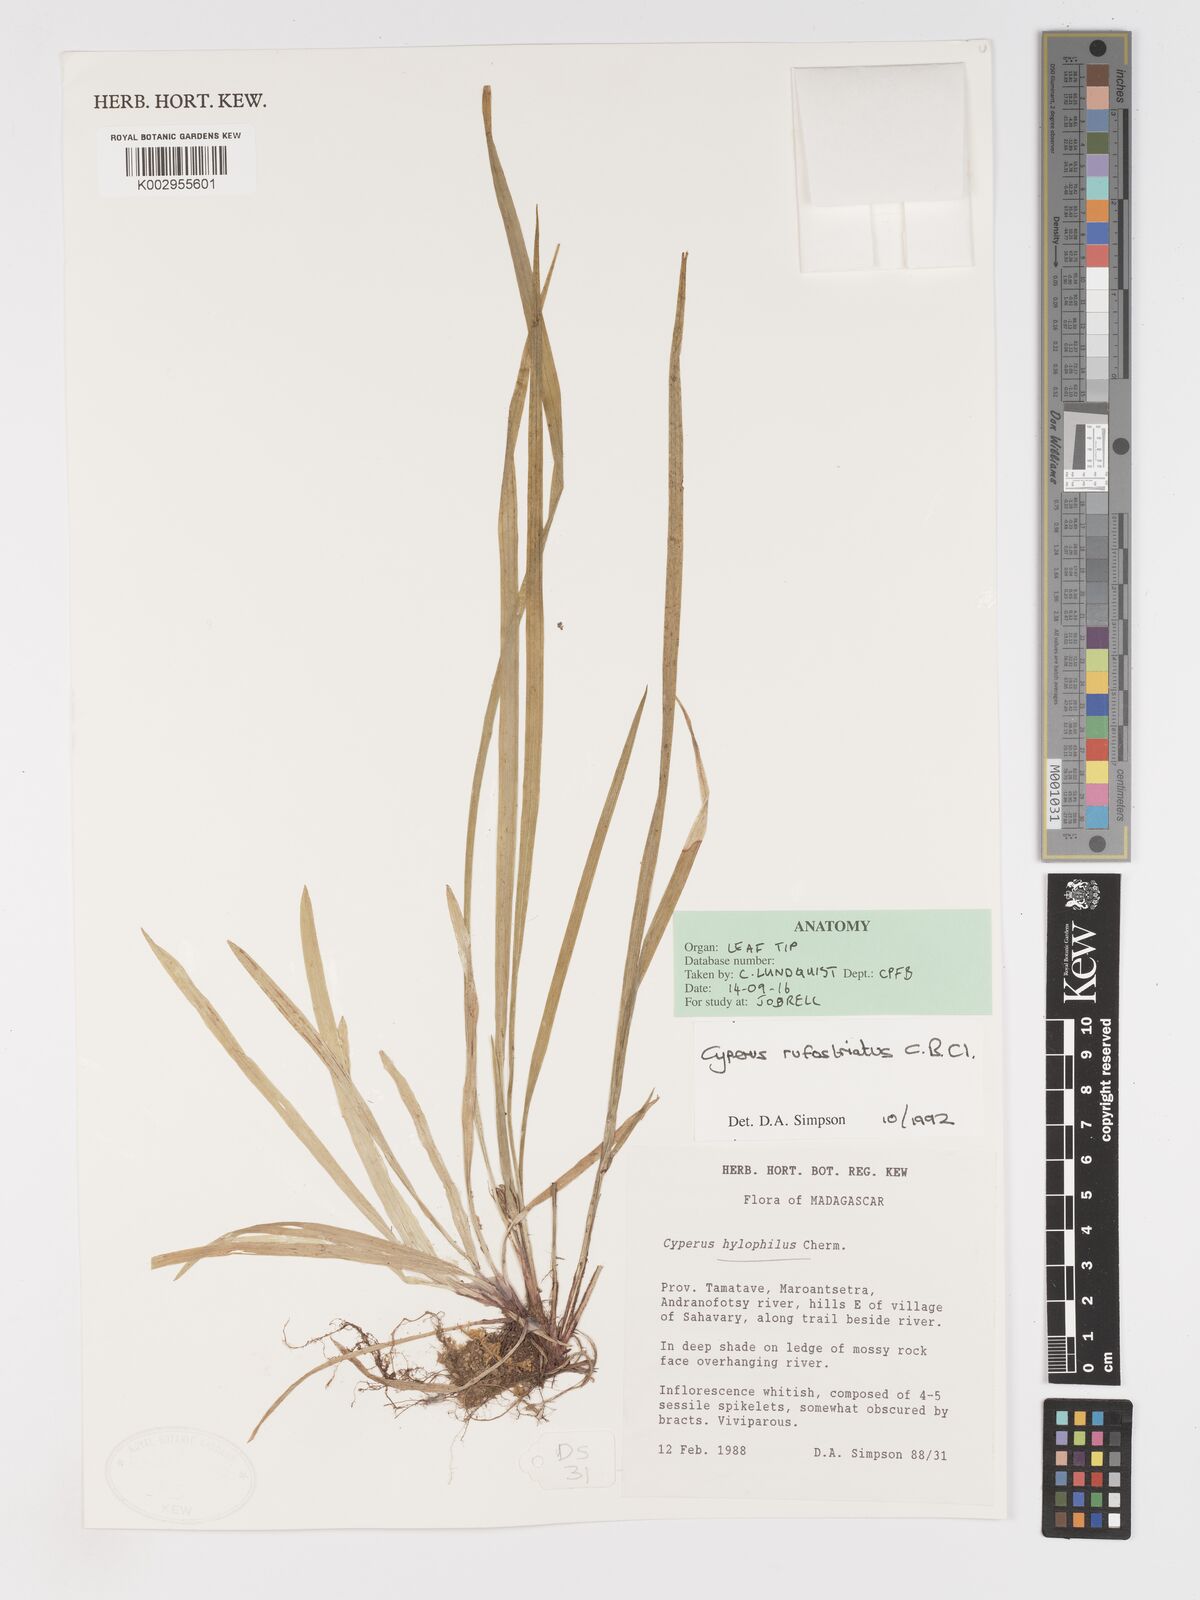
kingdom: Plantae
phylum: Tracheophyta
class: Liliopsida
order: Poales
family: Cyperaceae
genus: Cyperus
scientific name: Cyperus rufostriatus
